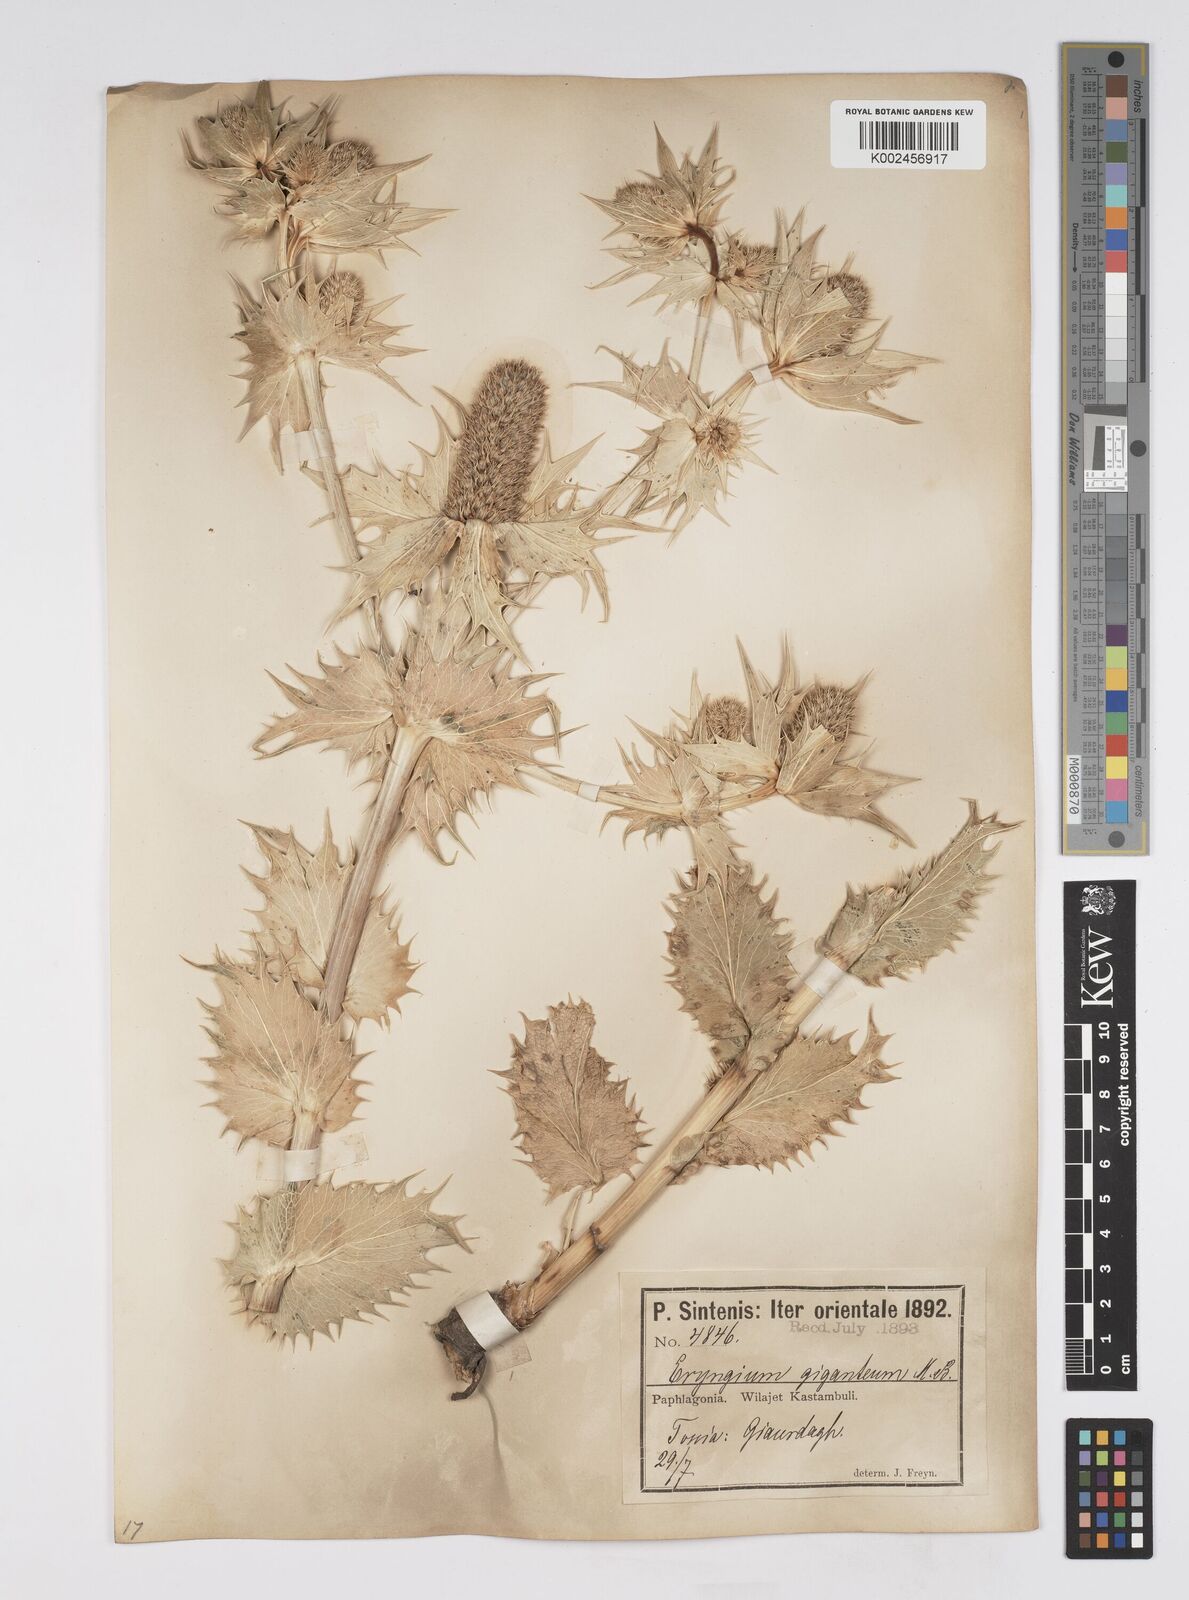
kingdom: Plantae
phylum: Tracheophyta
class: Magnoliopsida
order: Apiales
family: Apiaceae
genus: Eryngium
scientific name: Eryngium giganteum
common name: Tall eryngo
